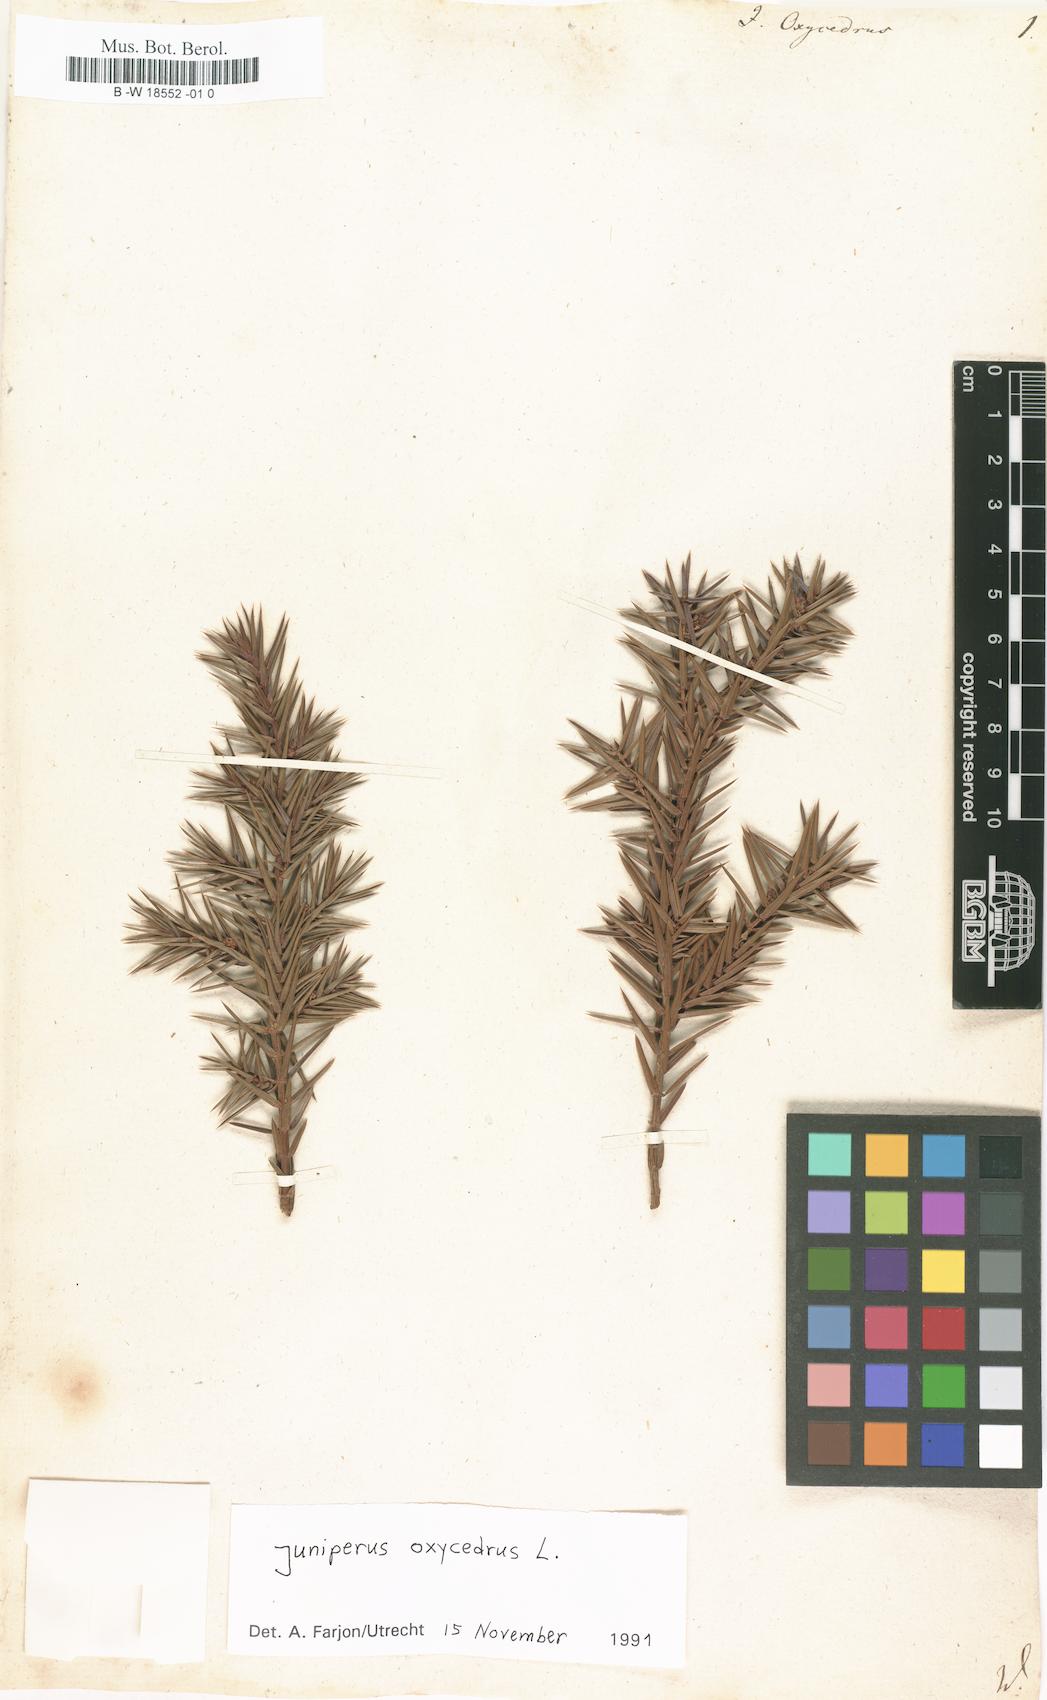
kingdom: Plantae
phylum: Tracheophyta
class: Pinopsida
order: Pinales
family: Cupressaceae
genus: Juniperus
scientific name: Juniperus oxycedrus
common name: Prickly juniper
